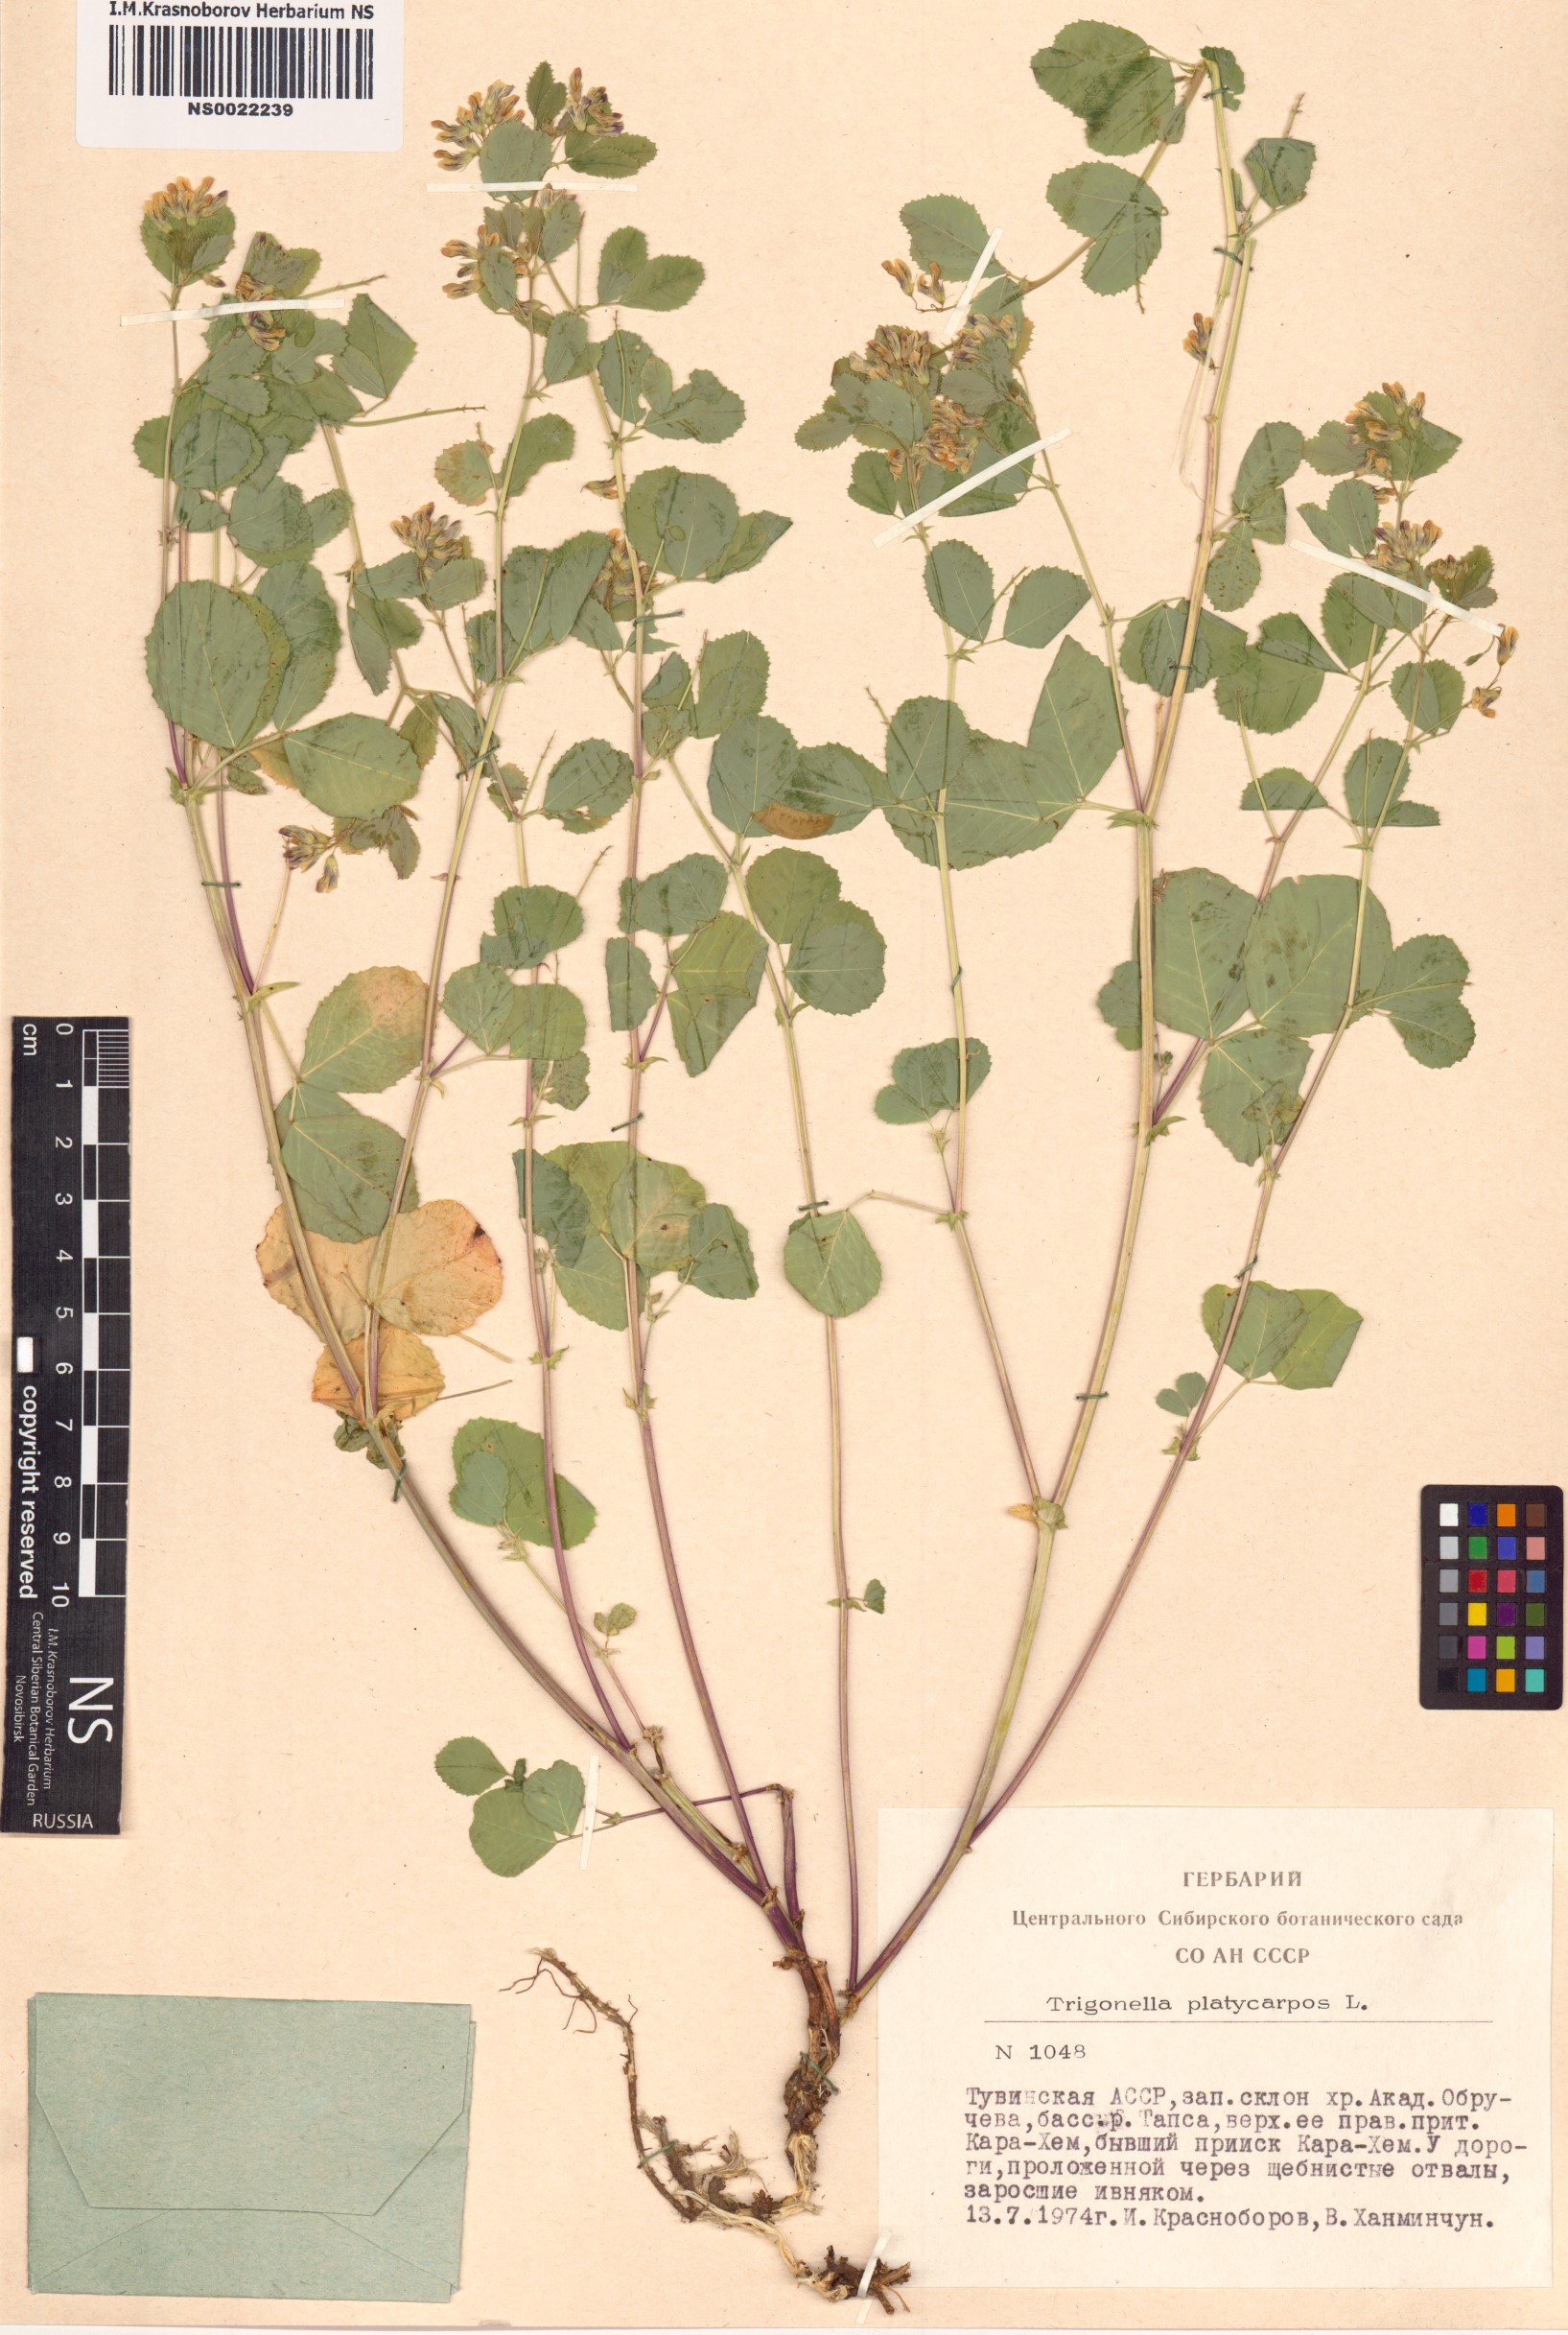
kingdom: Plantae
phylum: Tracheophyta
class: Magnoliopsida
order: Fabales
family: Fabaceae
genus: Medicago
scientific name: Medicago platycarpos
